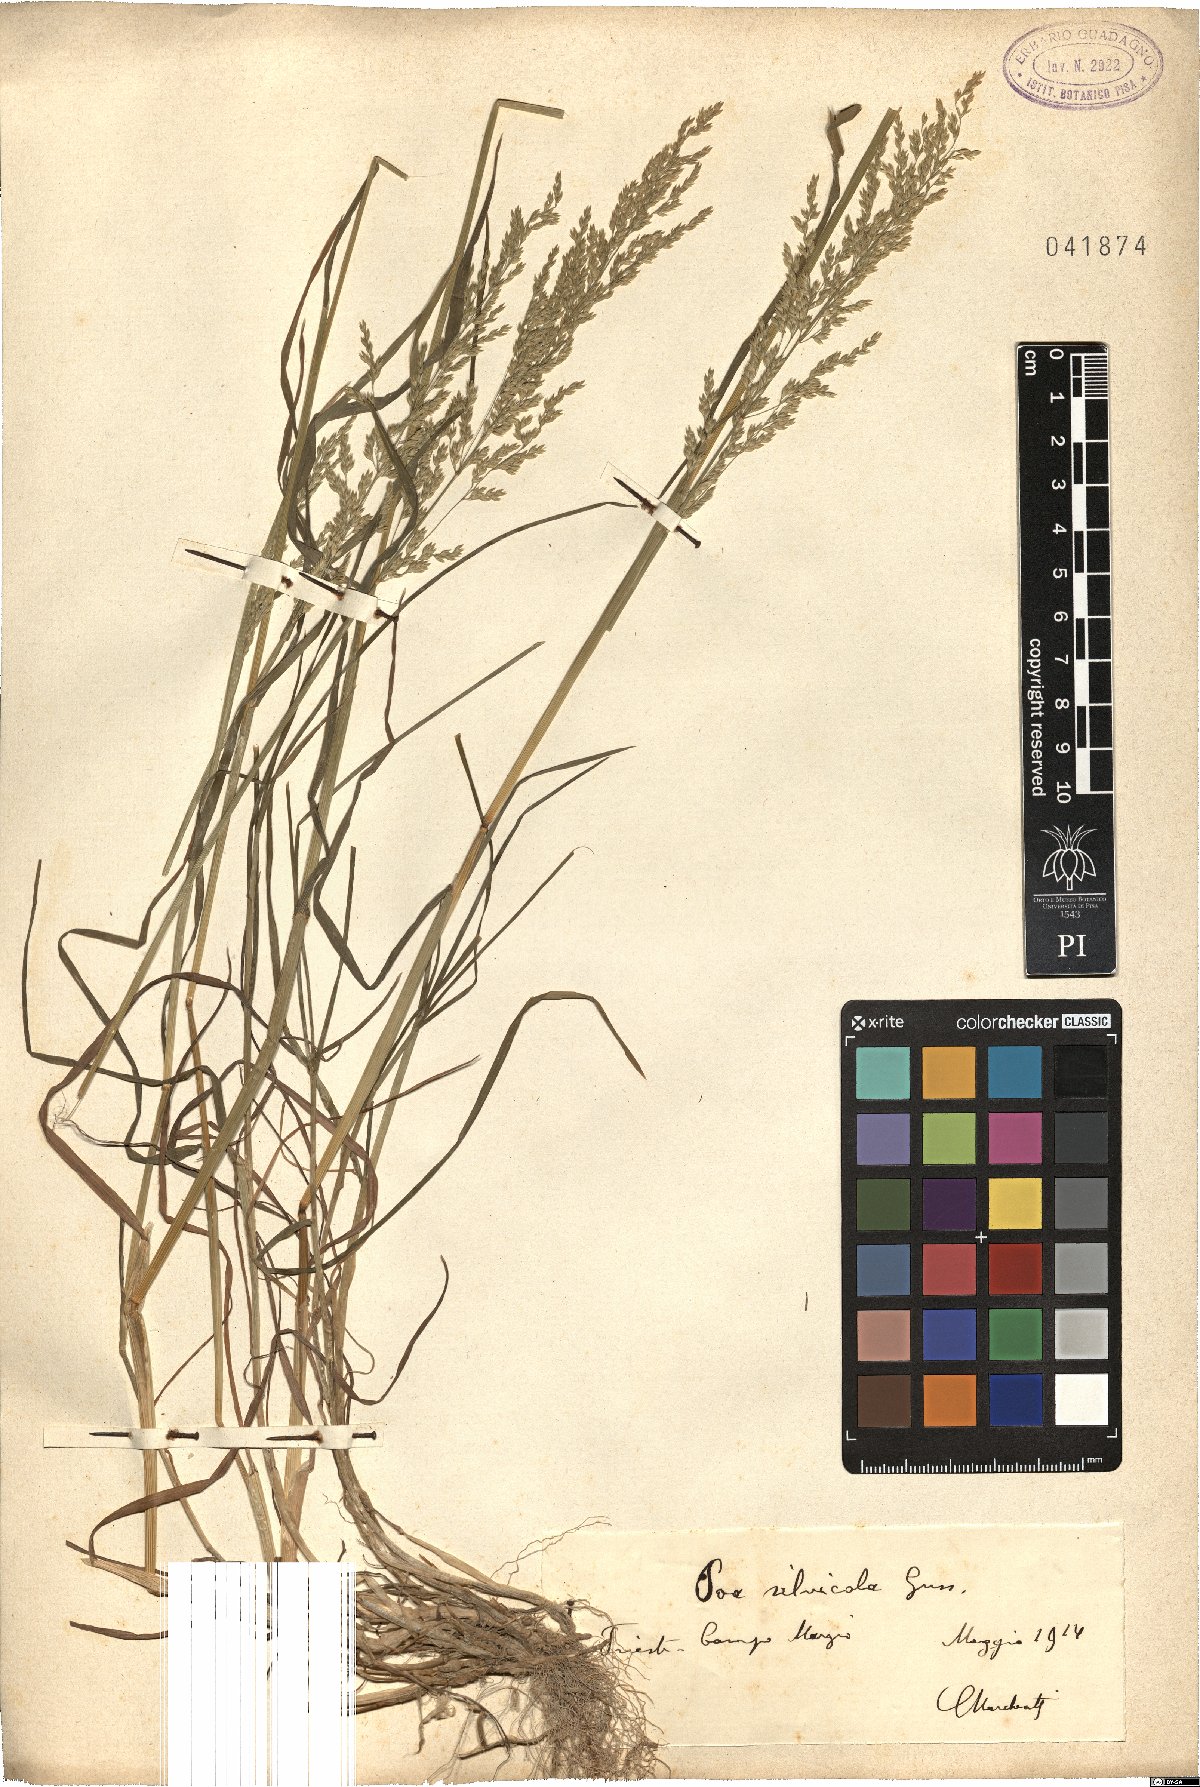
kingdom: Plantae
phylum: Tracheophyta
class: Liliopsida
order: Poales
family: Poaceae
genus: Poa
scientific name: Poa trivialis
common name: Rough bluegrass
